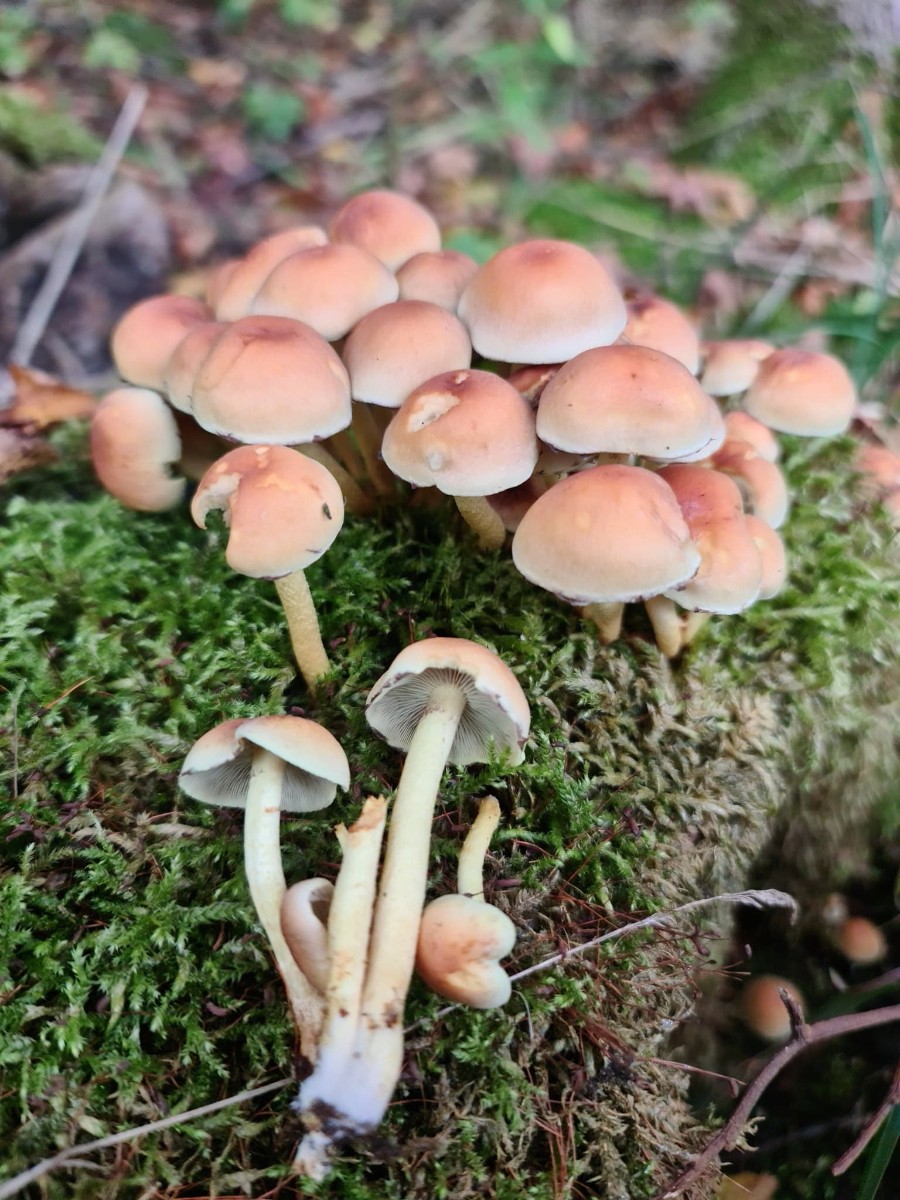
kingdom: Fungi
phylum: Basidiomycota
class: Agaricomycetes
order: Agaricales
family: Strophariaceae
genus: Hypholoma
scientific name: Hypholoma fasciculare
